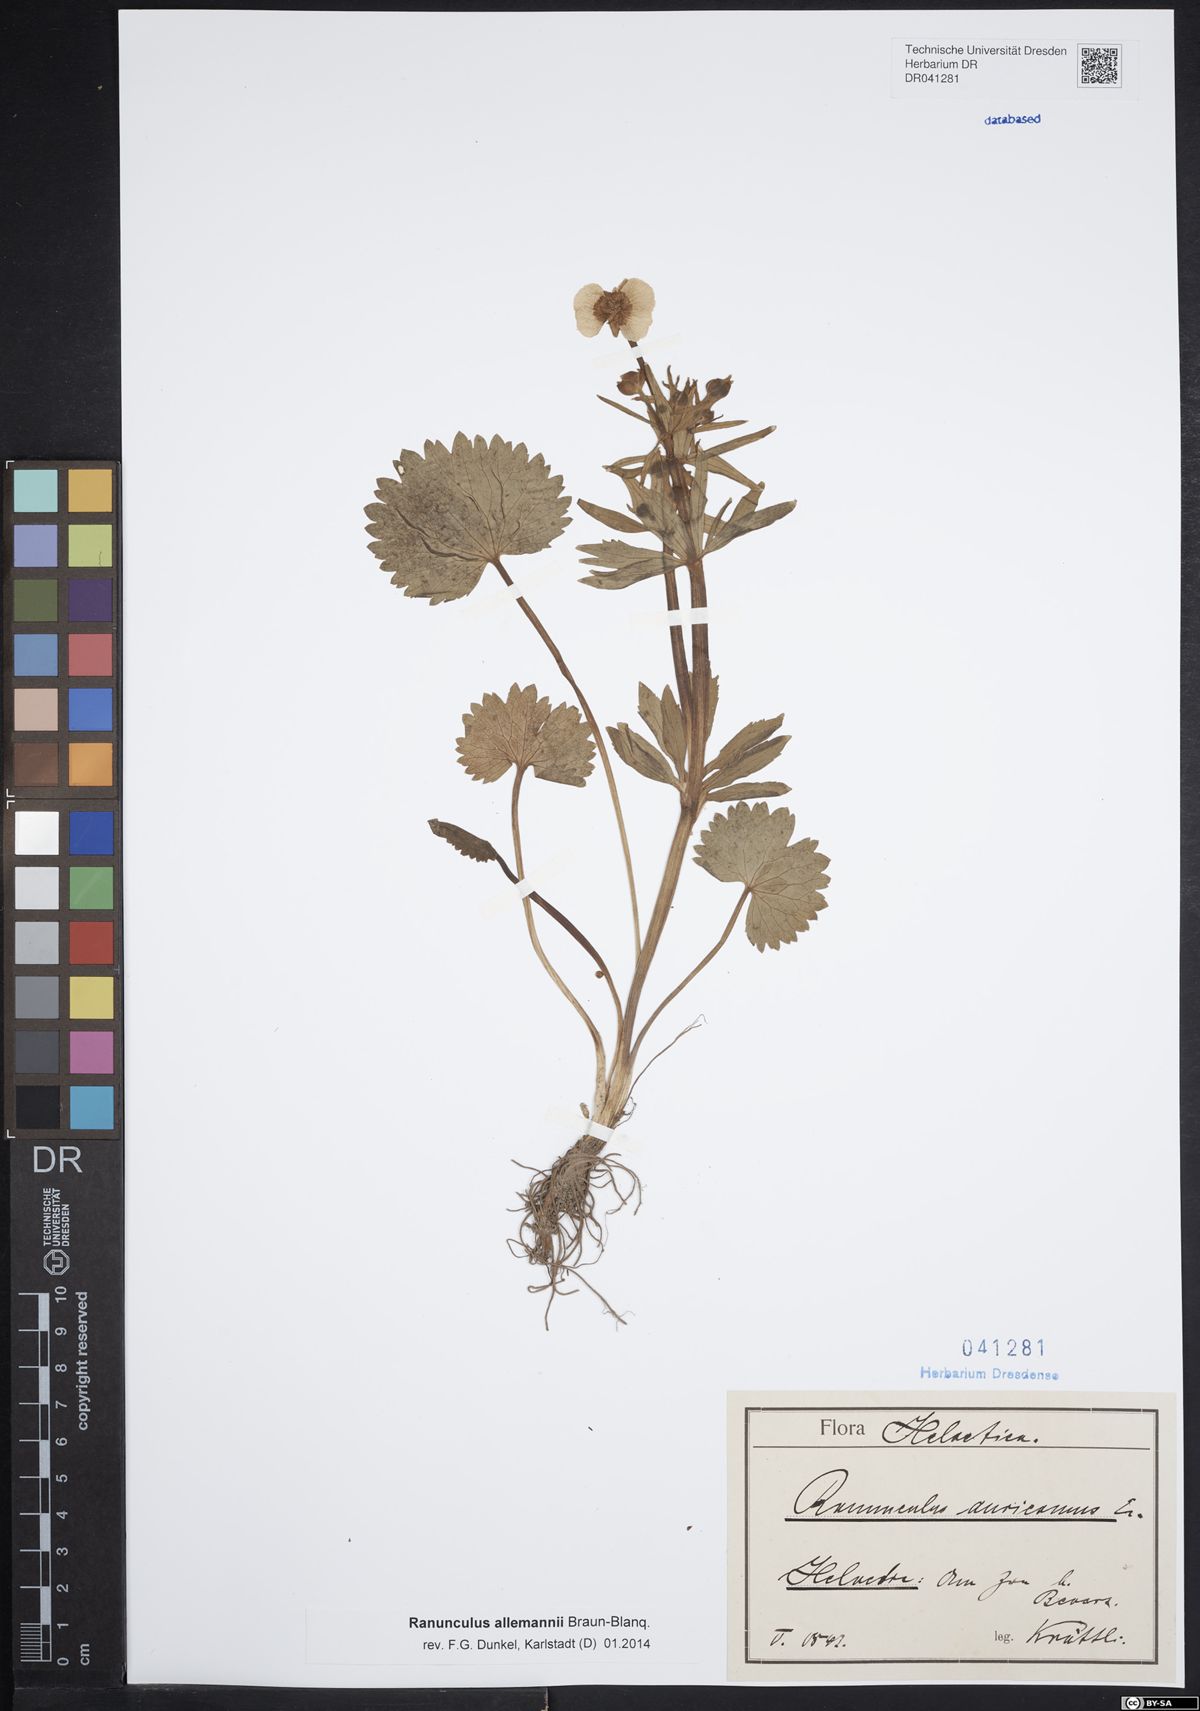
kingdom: Plantae
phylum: Tracheophyta
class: Magnoliopsida
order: Ranunculales
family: Ranunculaceae
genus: Ranunculus
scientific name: Ranunculus allemannii
